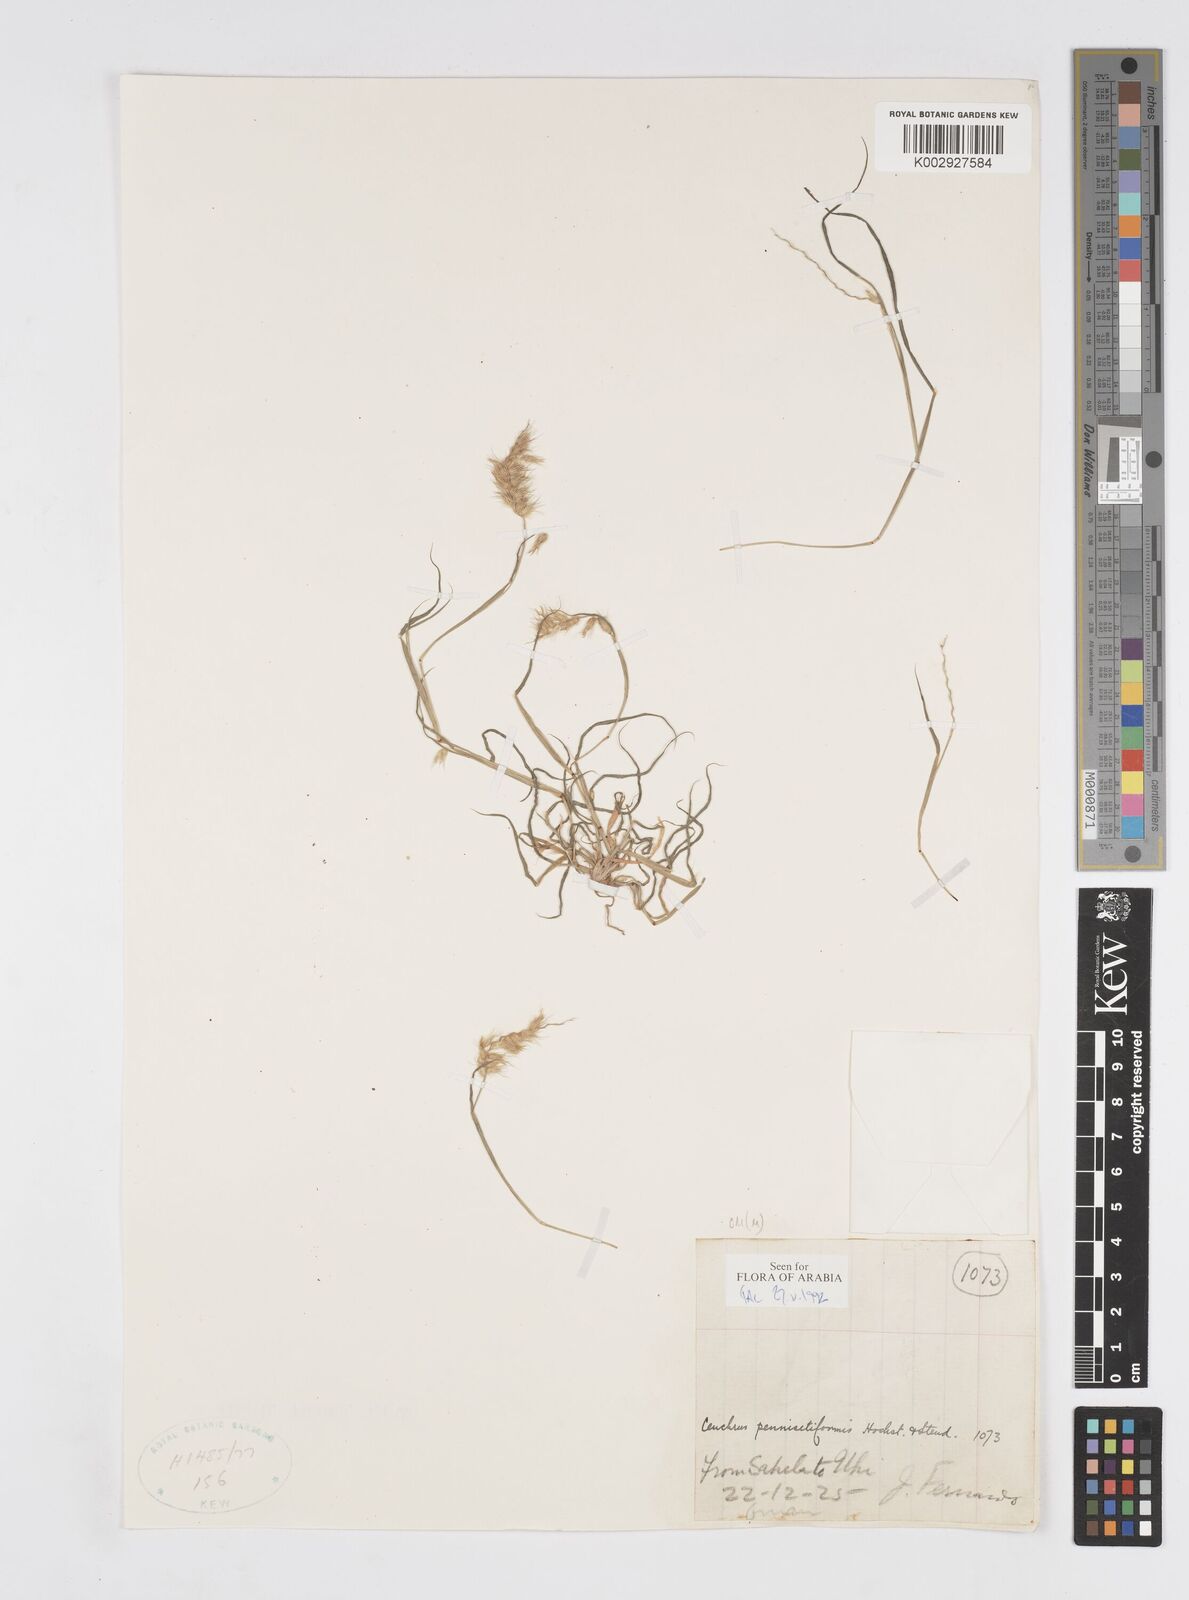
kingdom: Plantae
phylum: Tracheophyta
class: Liliopsida
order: Poales
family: Poaceae
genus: Cenchrus
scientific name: Cenchrus pennisetiformis
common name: Cloncurry
